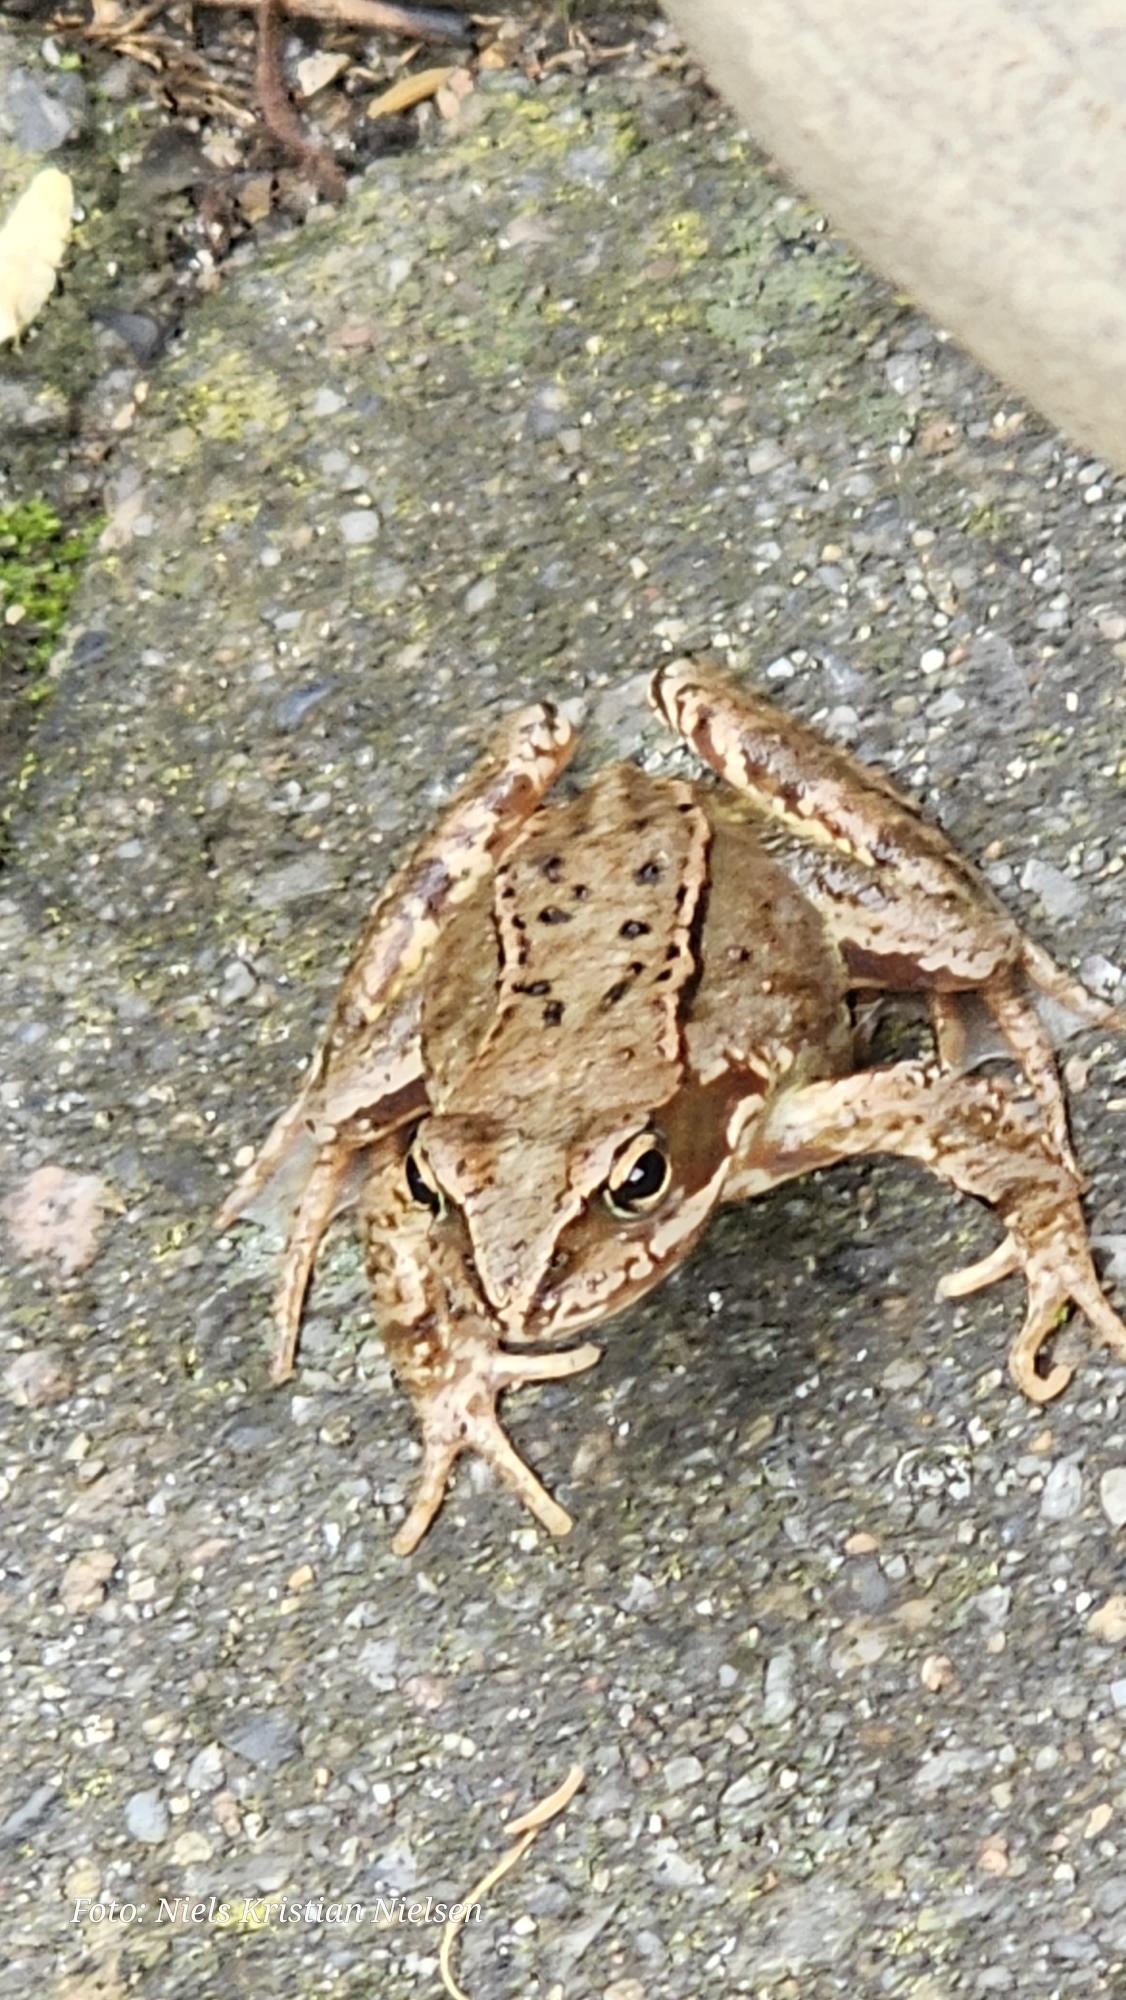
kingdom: Animalia
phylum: Chordata
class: Amphibia
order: Anura
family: Ranidae
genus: Rana
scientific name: Rana temporaria
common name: Butsnudet frø
